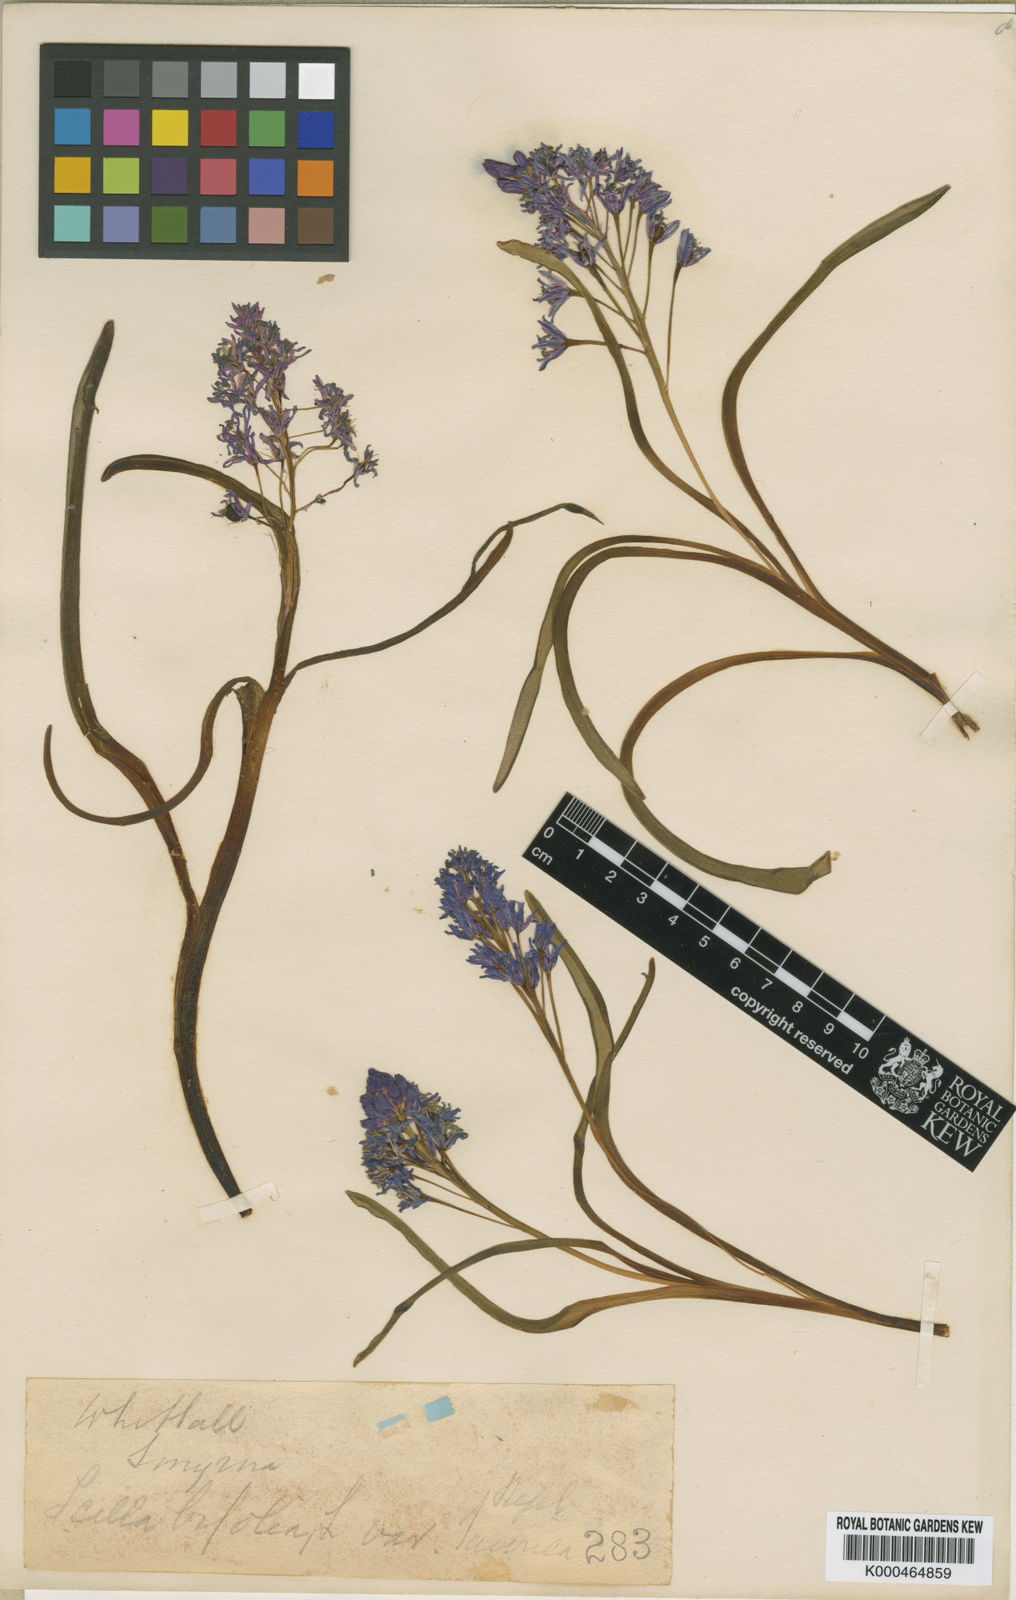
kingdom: Plantae
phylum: Tracheophyta
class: Liliopsida
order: Asparagales
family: Asparagaceae
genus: Scilla
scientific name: Scilla bifolia
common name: Alpine squill
